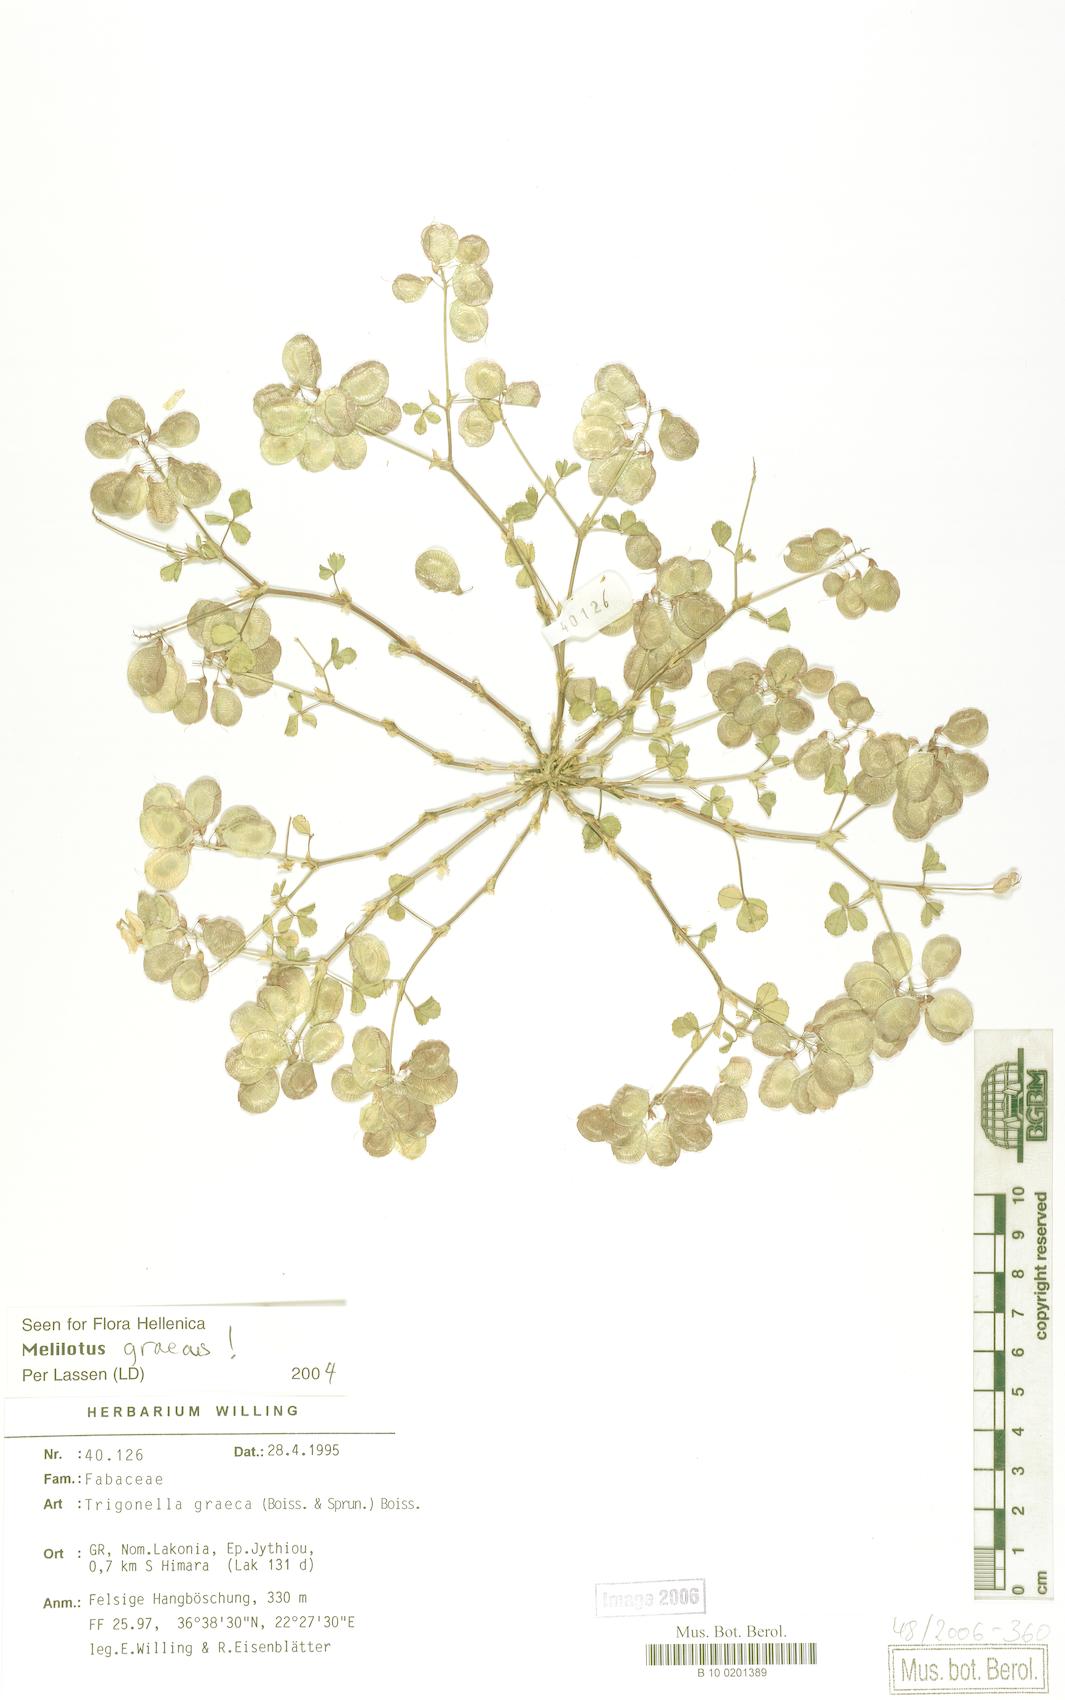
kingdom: Plantae
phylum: Tracheophyta
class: Magnoliopsida
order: Fabales
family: Fabaceae
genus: Trigonella
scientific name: Trigonella graeca
